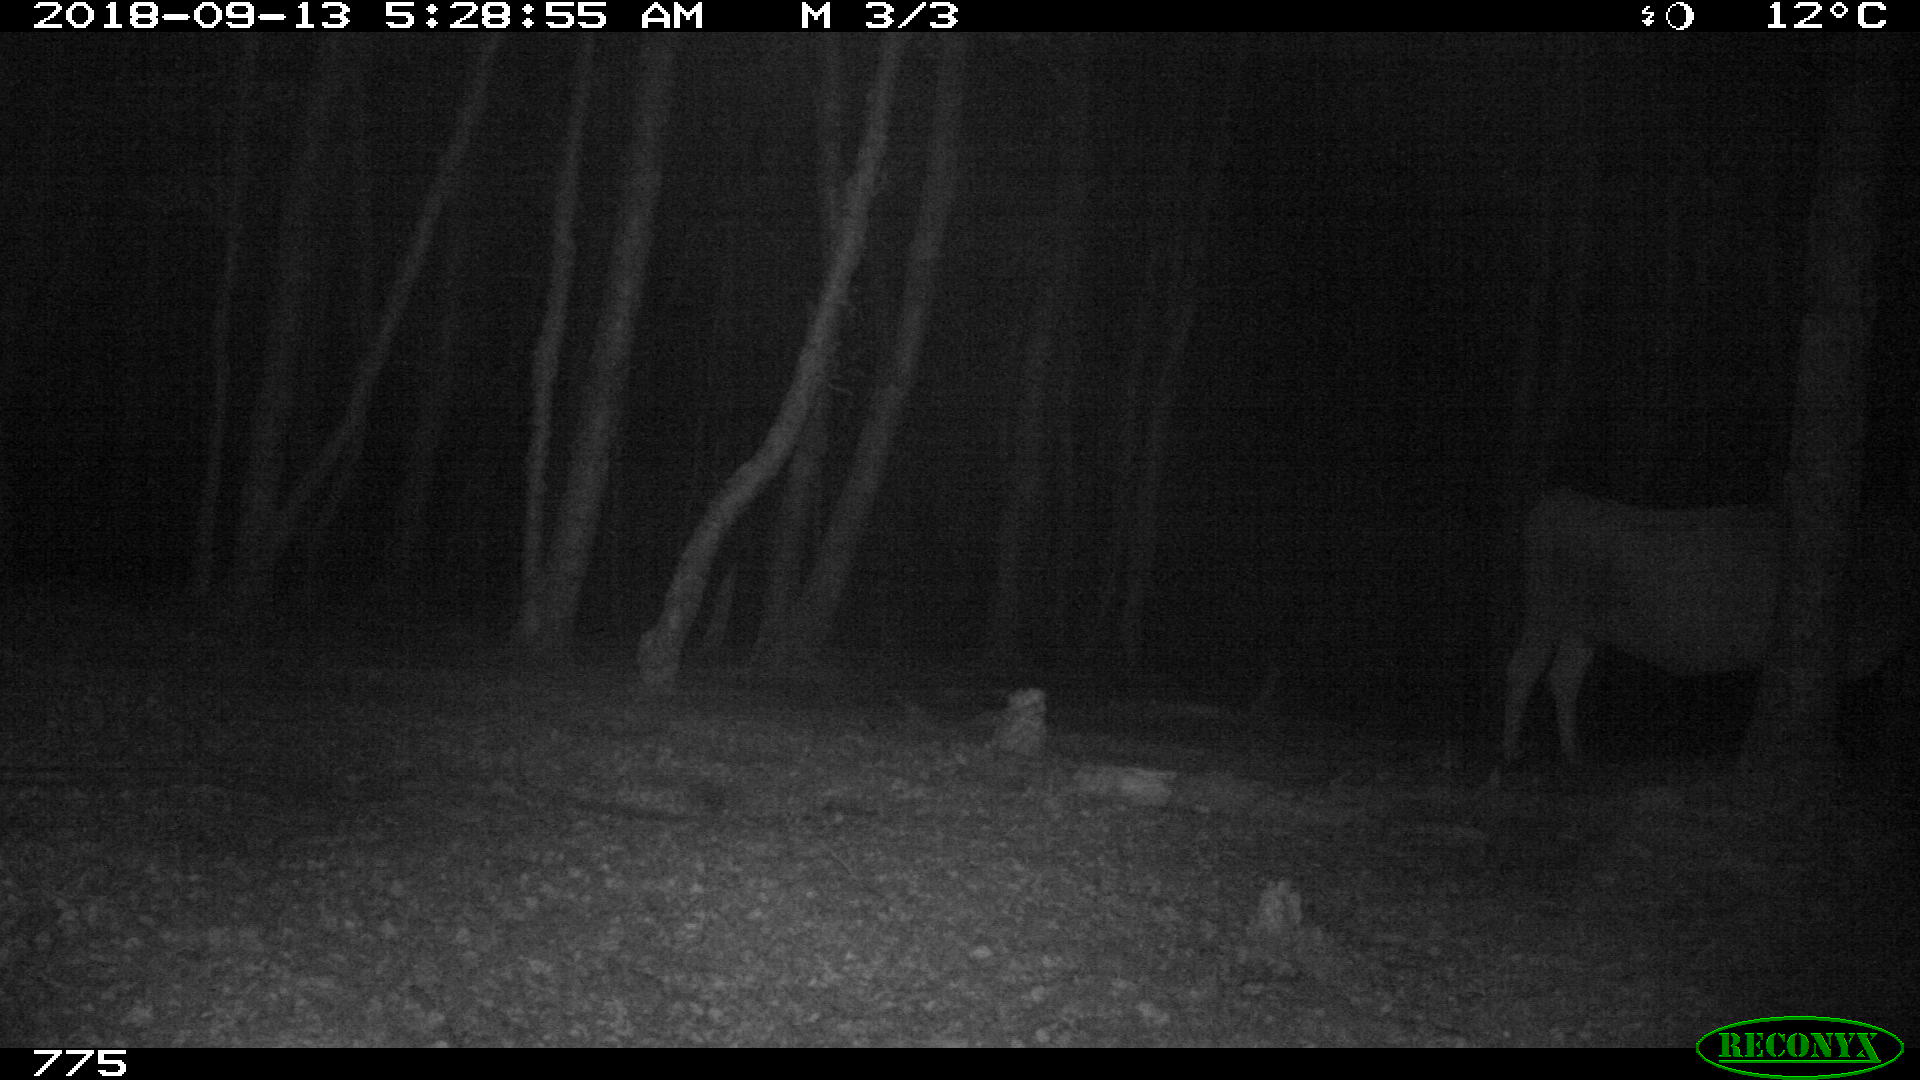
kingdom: Animalia
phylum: Chordata
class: Mammalia
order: Artiodactyla
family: Bovidae
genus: Bos
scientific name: Bos taurus
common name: Domesticated cattle
